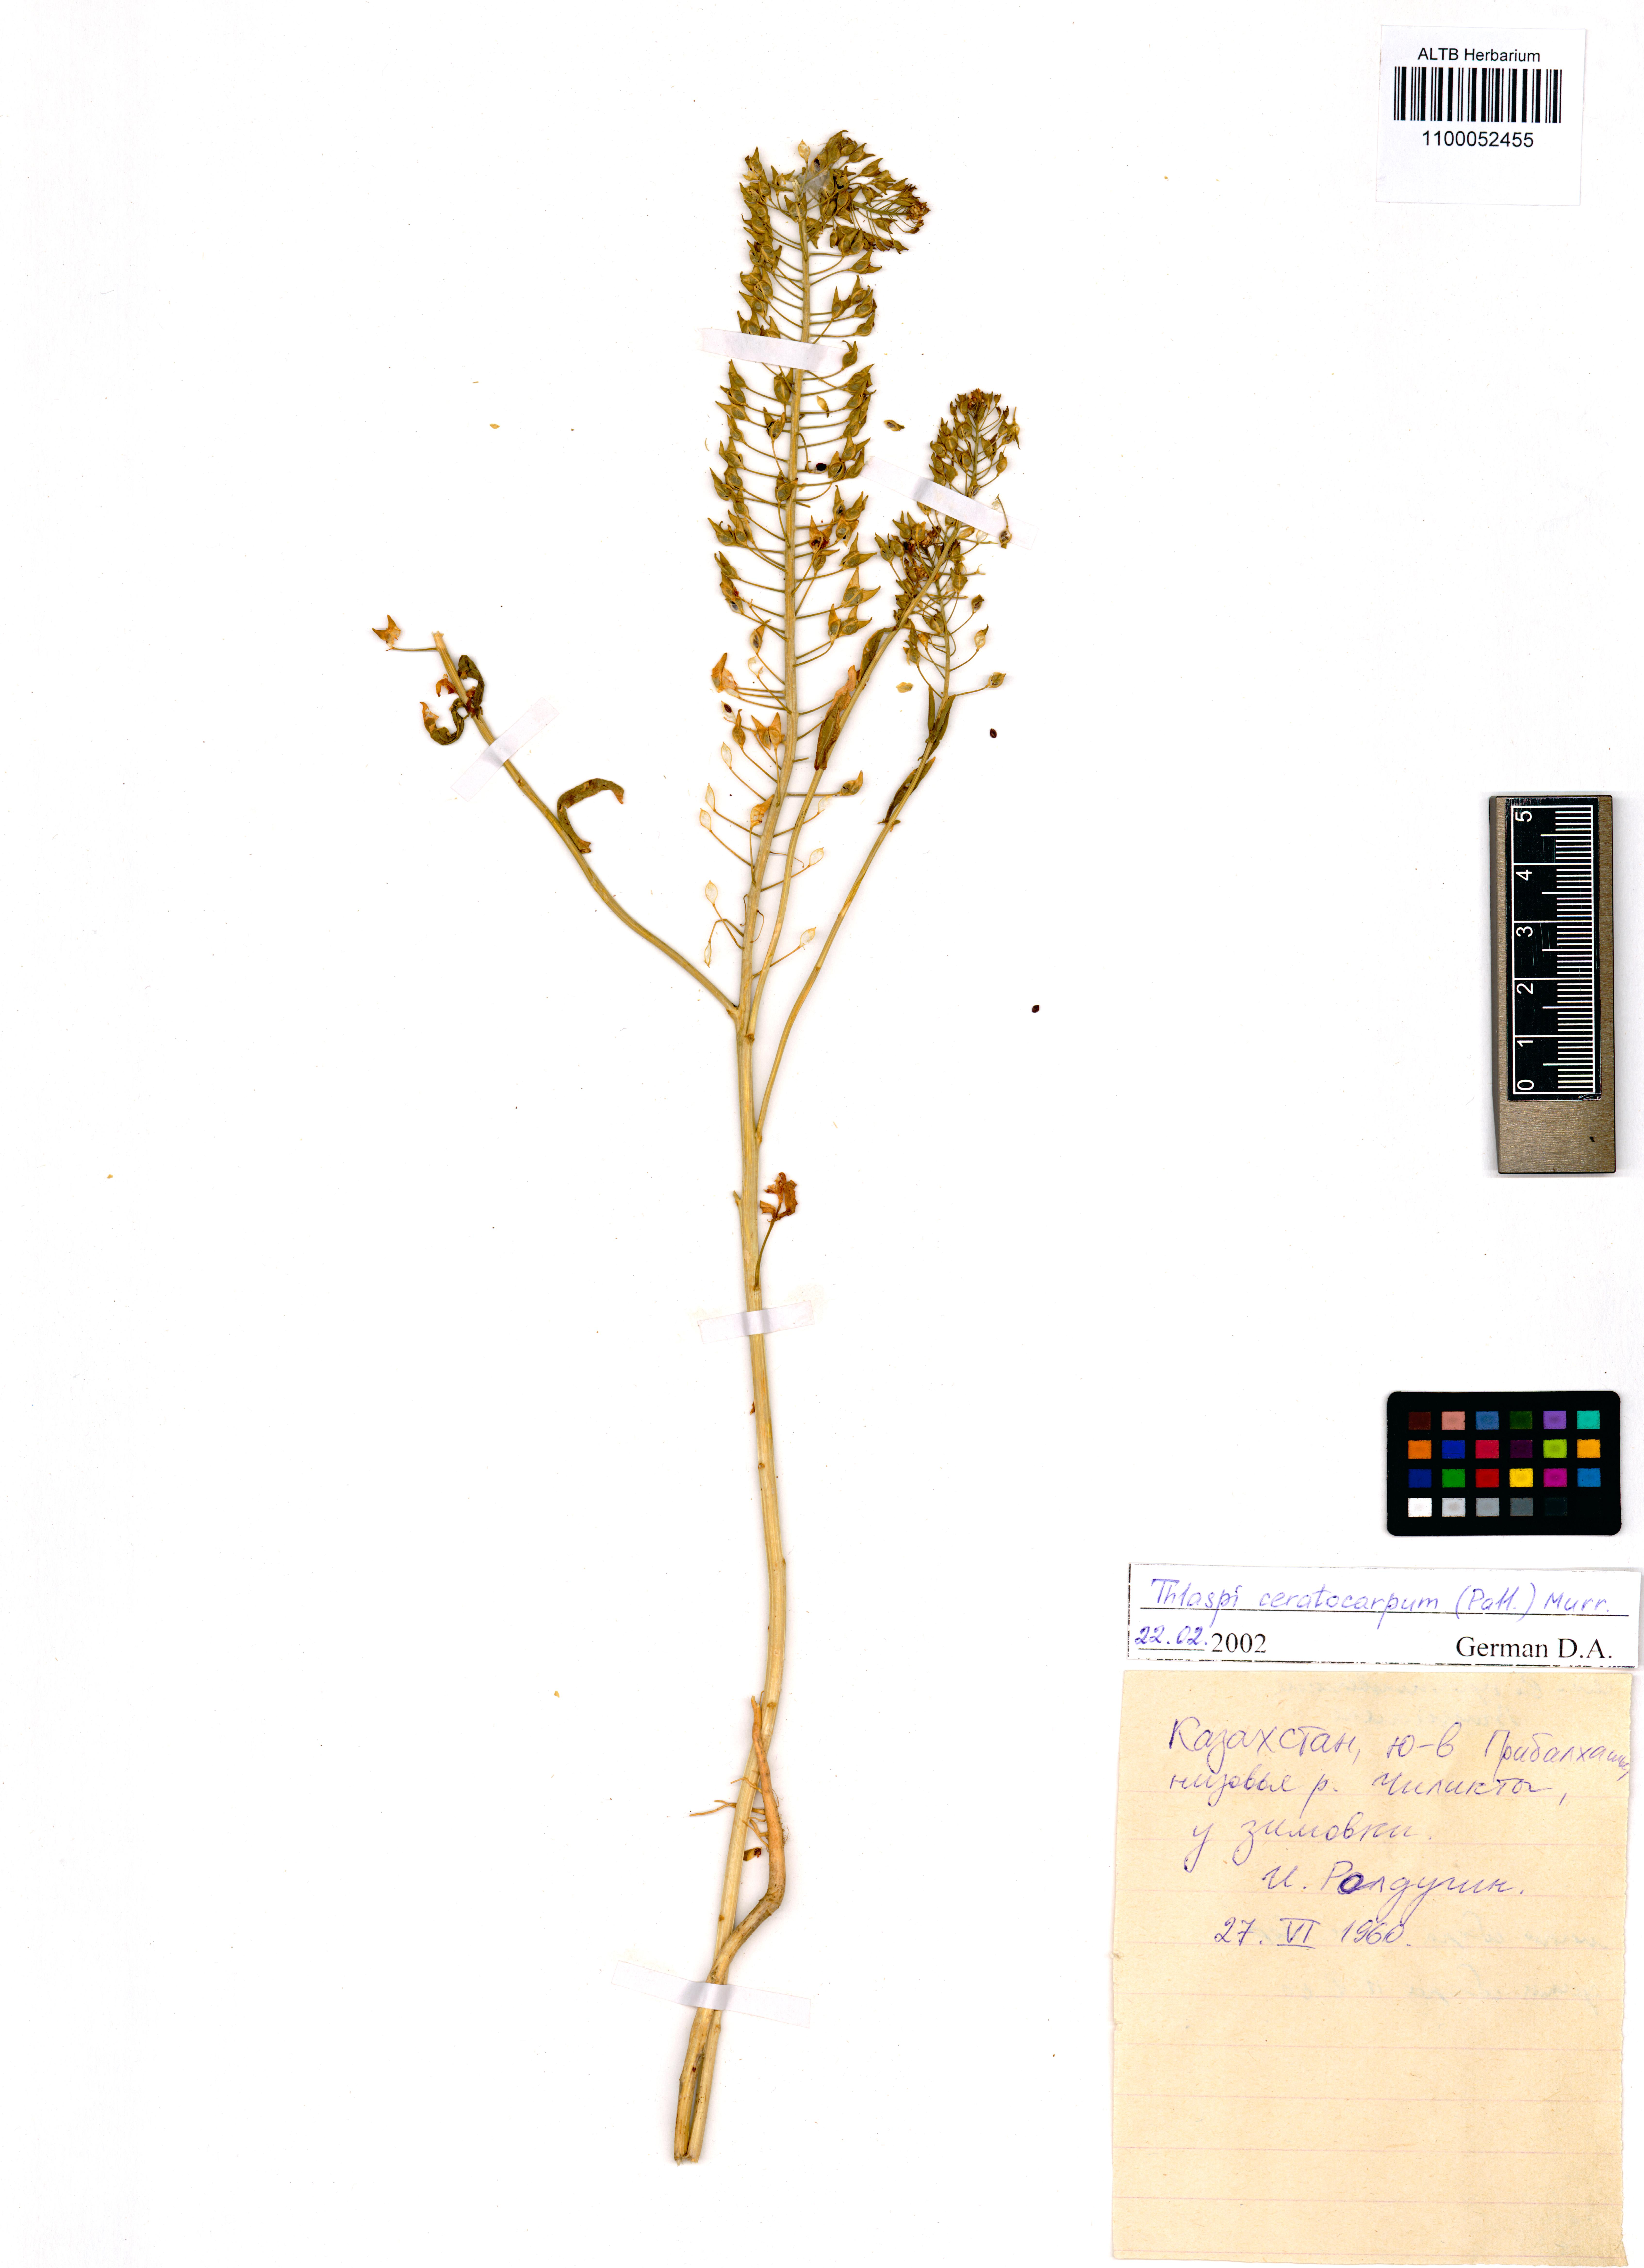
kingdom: Plantae
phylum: Tracheophyta
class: Magnoliopsida
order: Brassicales
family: Brassicaceae
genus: Thlaspi
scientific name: Thlaspi ceratocarpum
